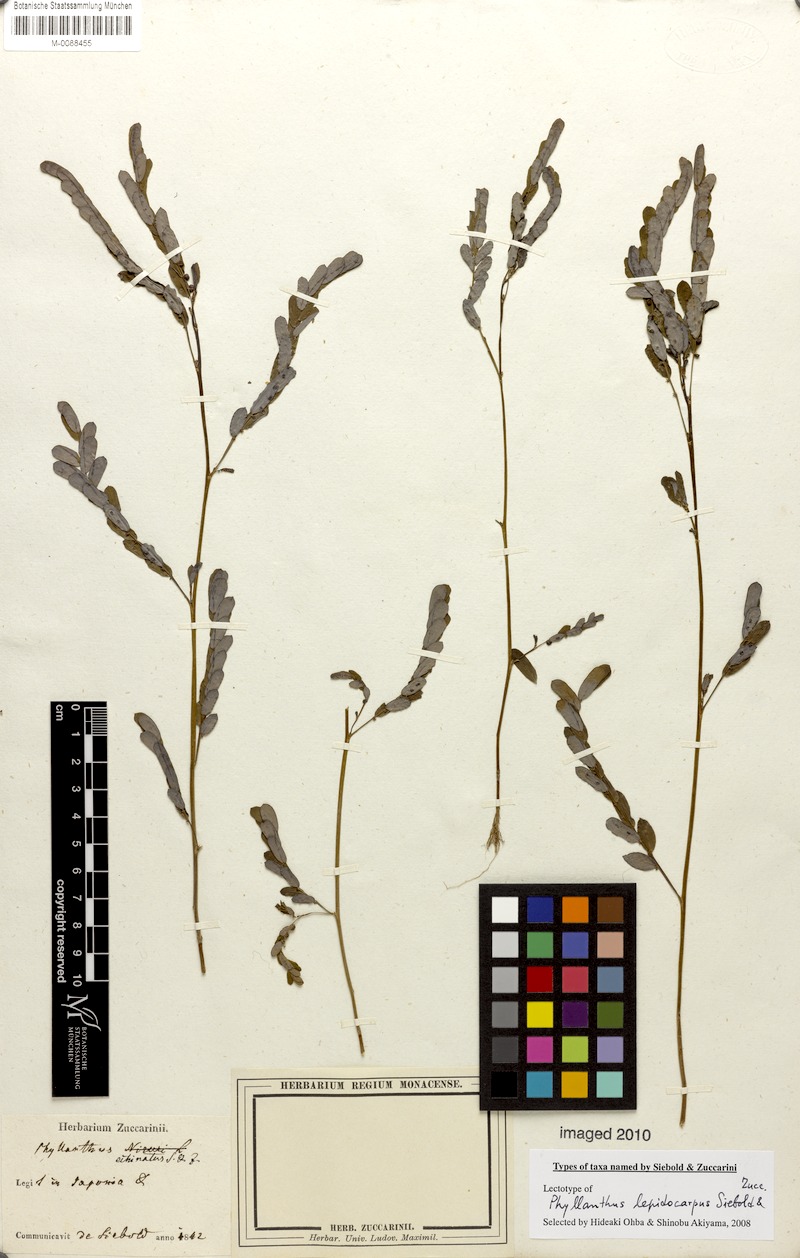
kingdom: Plantae
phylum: Tracheophyta
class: Magnoliopsida
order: Malpighiales
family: Phyllanthaceae
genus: Phyllanthus
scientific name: Phyllanthus urinaria
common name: Chamber bitter
